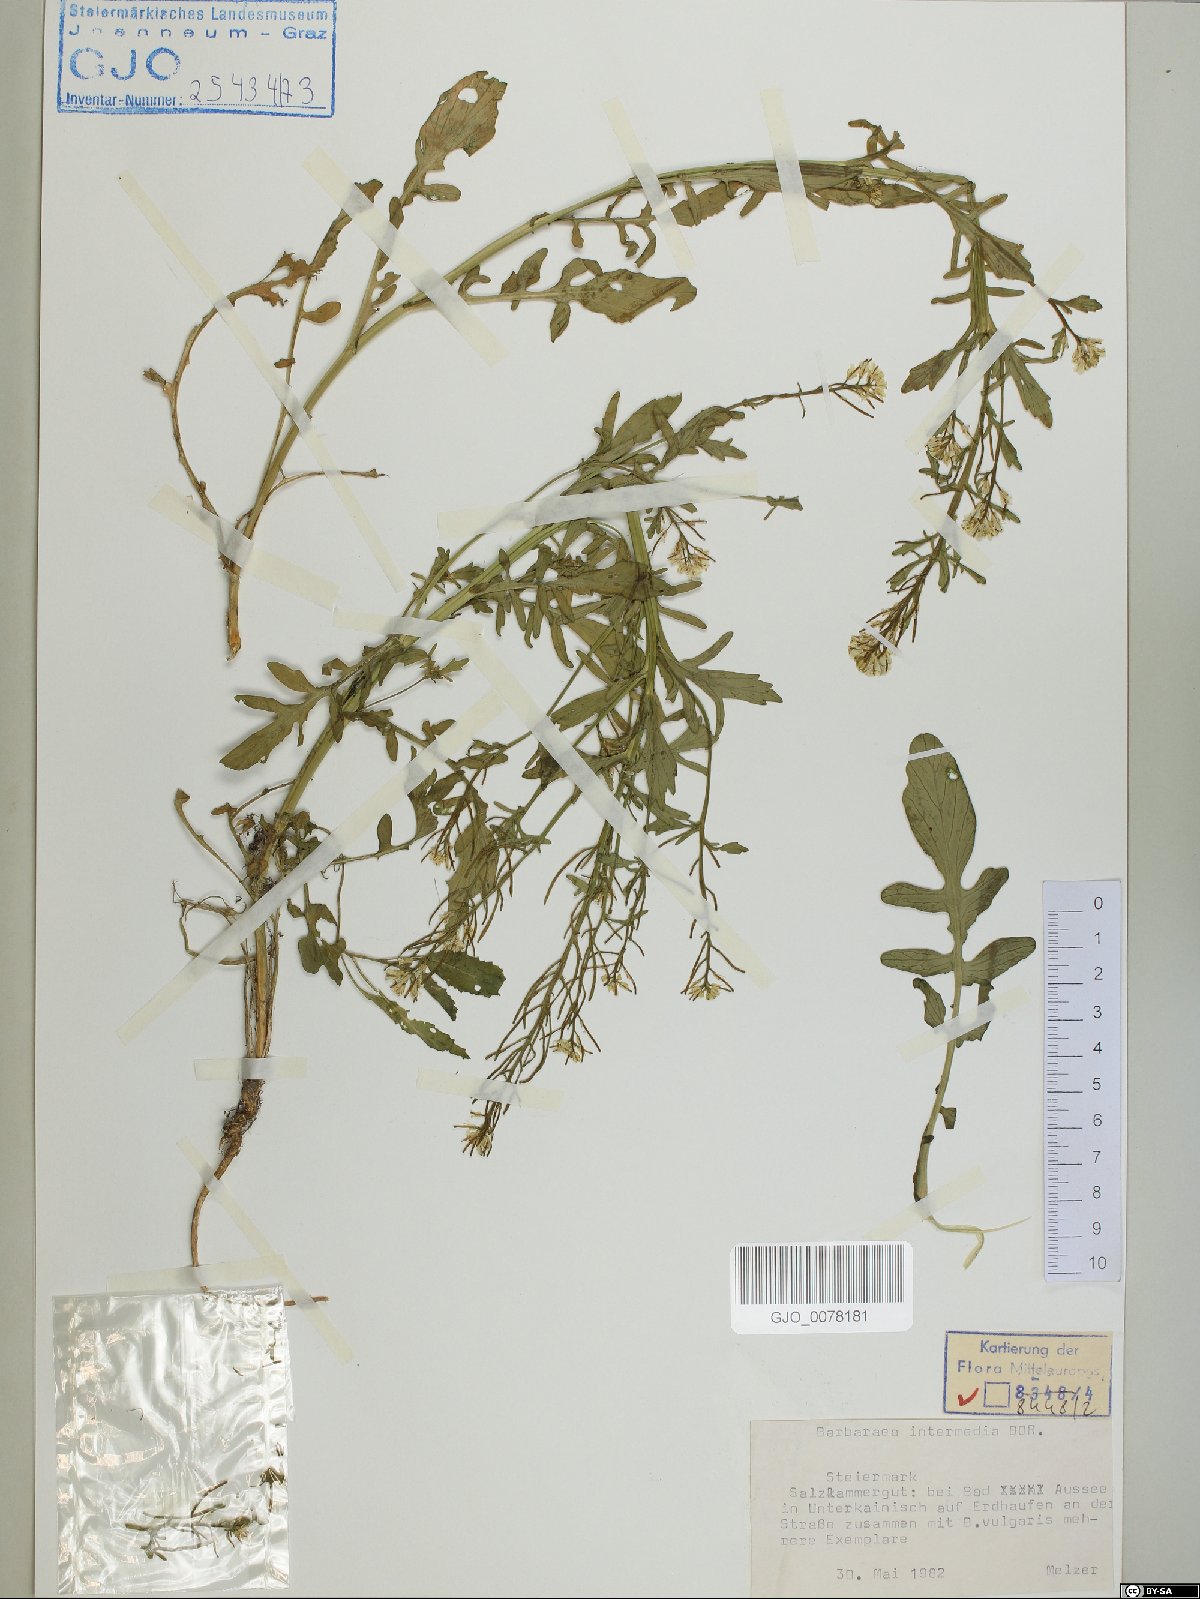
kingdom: Plantae
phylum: Tracheophyta
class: Magnoliopsida
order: Brassicales
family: Brassicaceae
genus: Barbarea
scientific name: Barbarea intermedia
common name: Medium-flowered winter-cress
